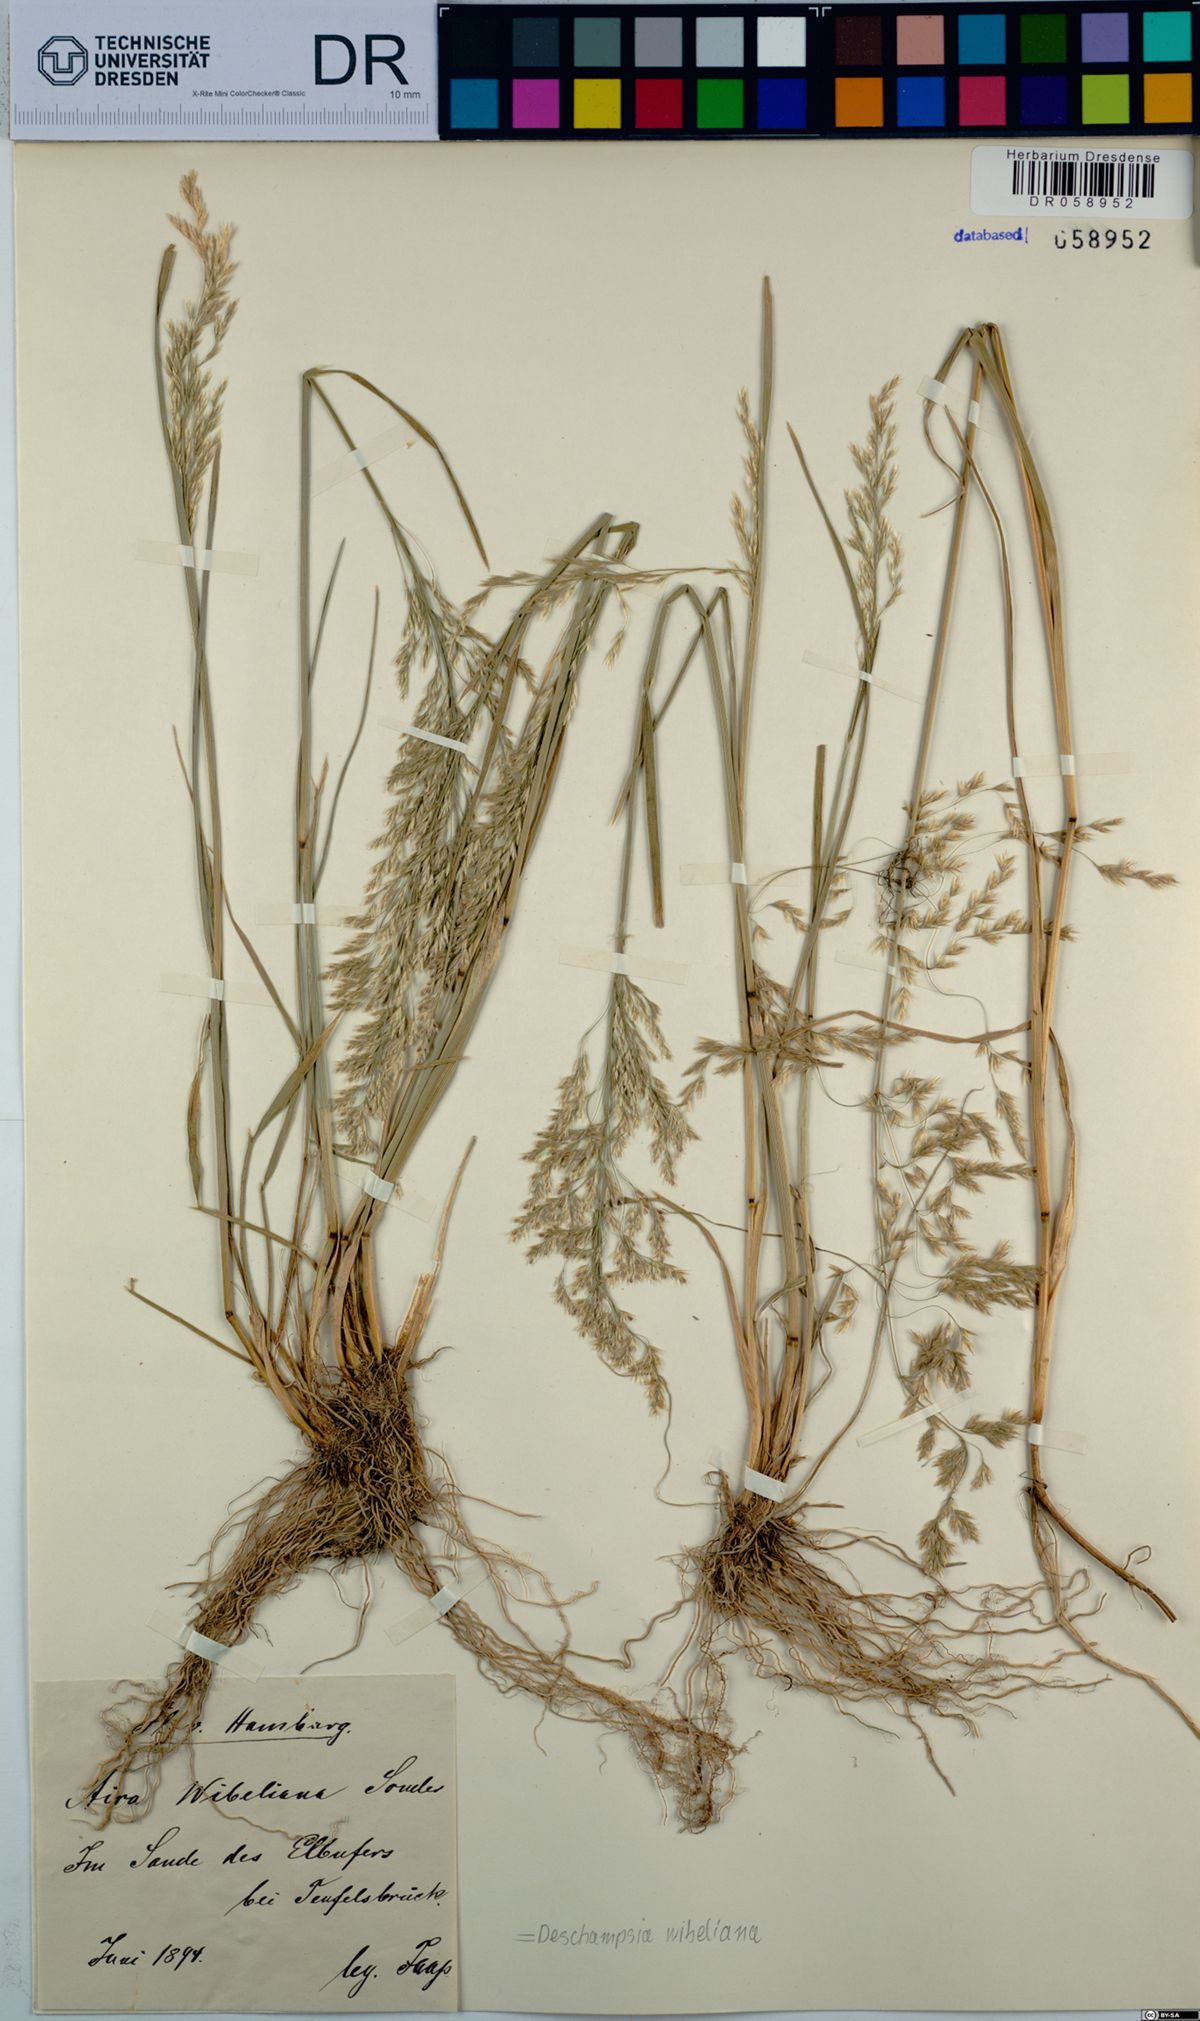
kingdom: Plantae
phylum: Tracheophyta
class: Liliopsida
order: Poales
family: Poaceae
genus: Deschampsia
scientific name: Deschampsia cespitosa
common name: Tufted hair-grass
